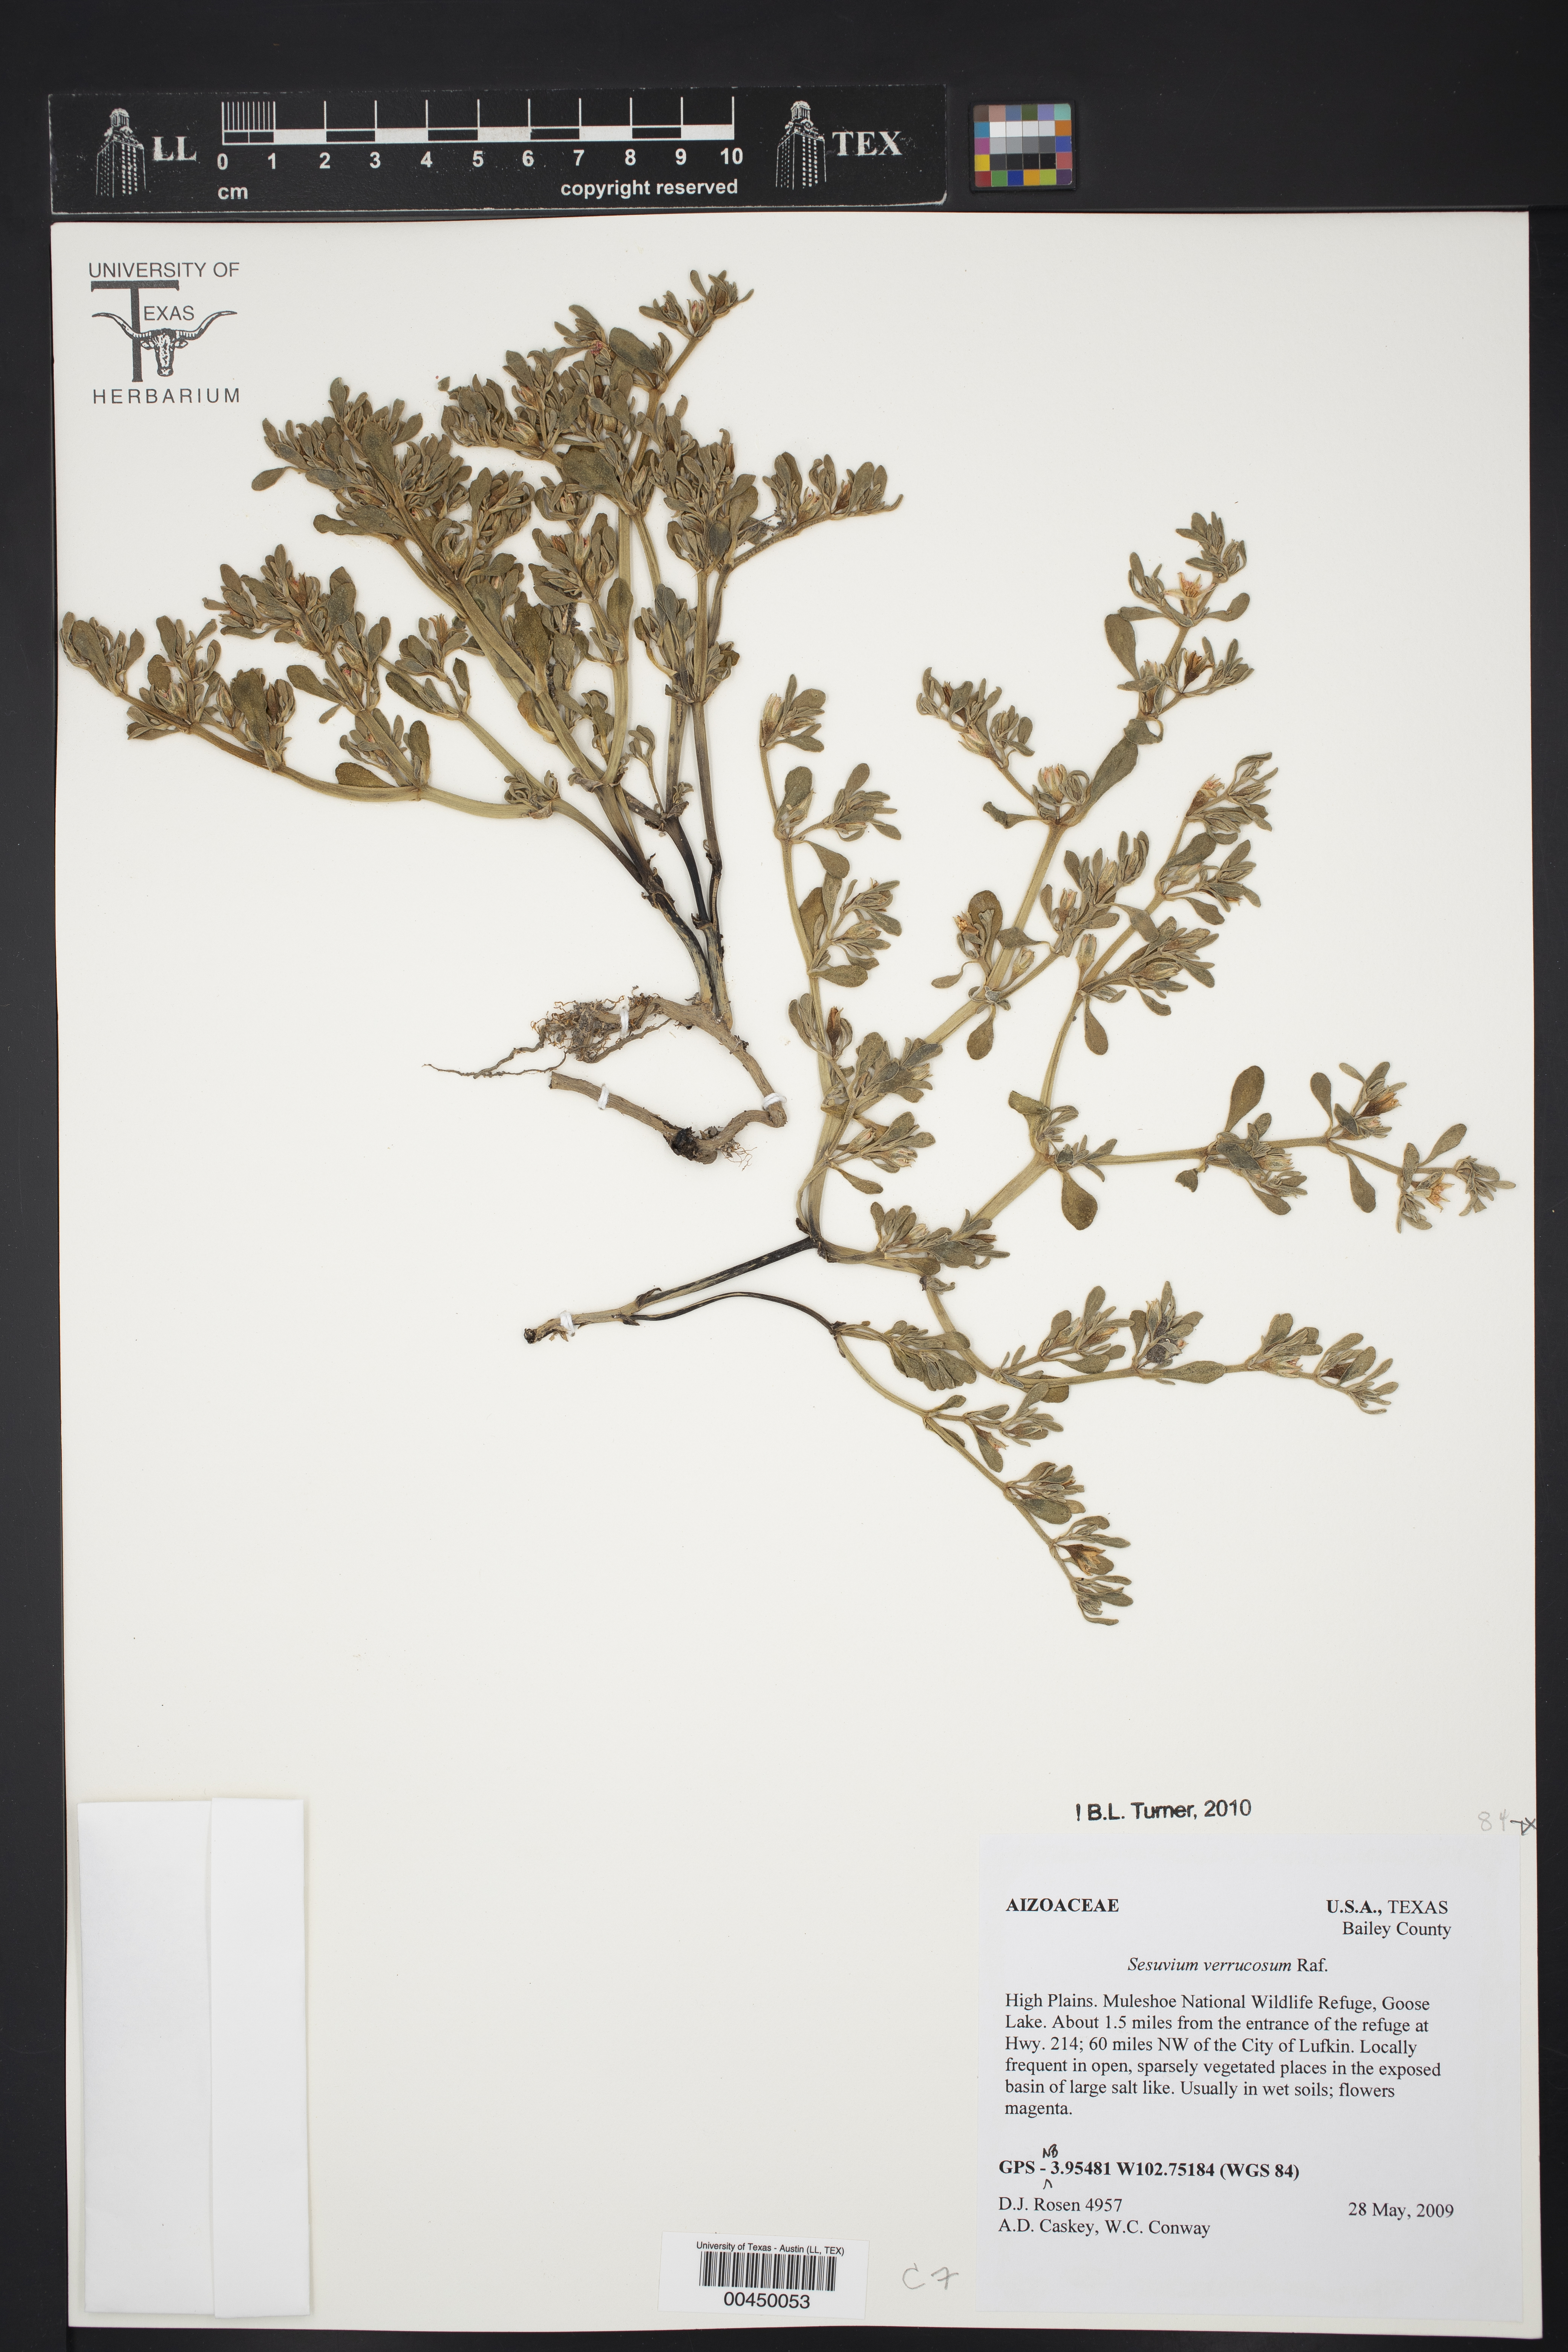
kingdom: Plantae
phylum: Tracheophyta
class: Magnoliopsida
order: Caryophyllales
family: Aizoaceae
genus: Sesuvium
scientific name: Sesuvium revolutifolium
